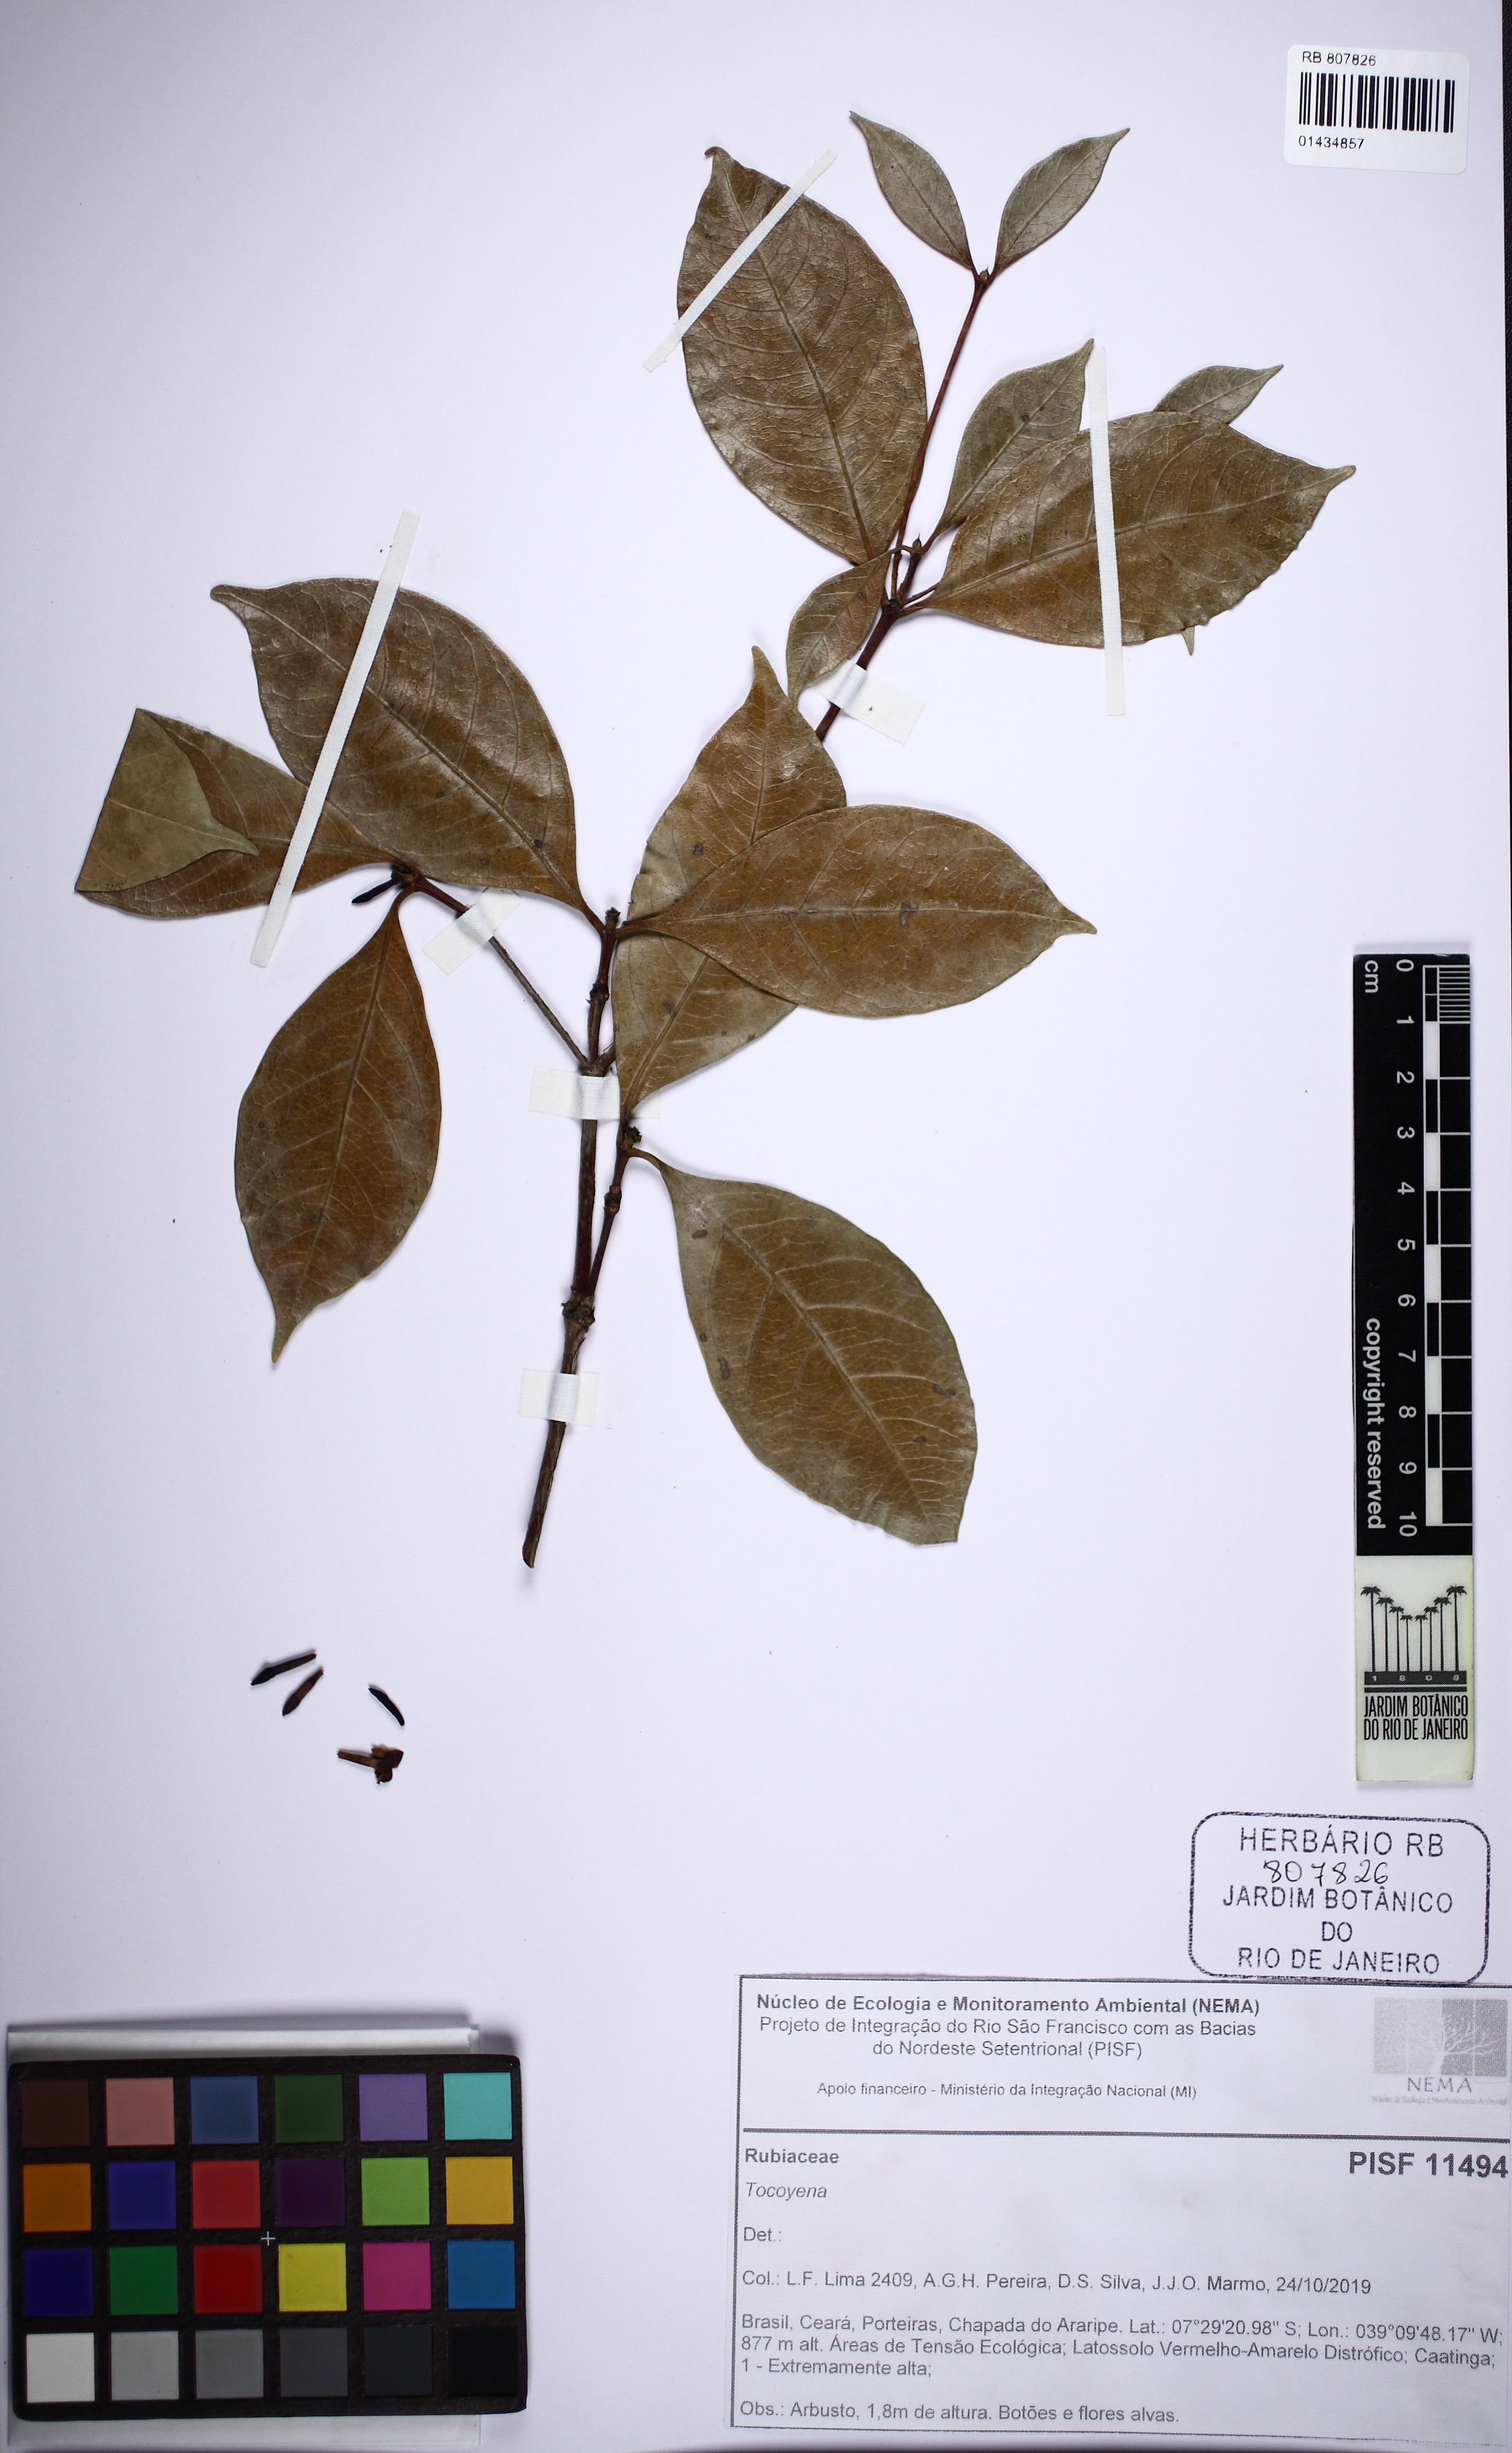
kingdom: Plantae
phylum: Tracheophyta
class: Magnoliopsida
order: Gentianales
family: Rubiaceae
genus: Cordiera
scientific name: Cordiera myrciifolia
